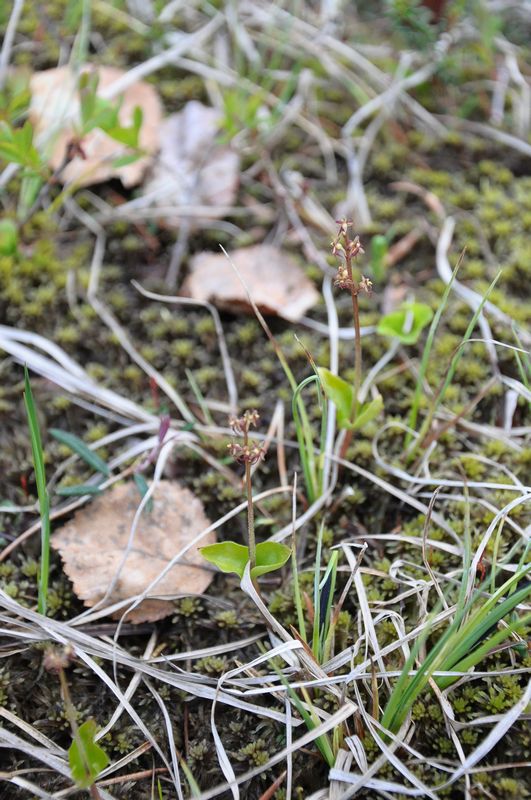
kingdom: Plantae
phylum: Tracheophyta
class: Liliopsida
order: Asparagales
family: Orchidaceae
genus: Neottia
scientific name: Neottia cordata
